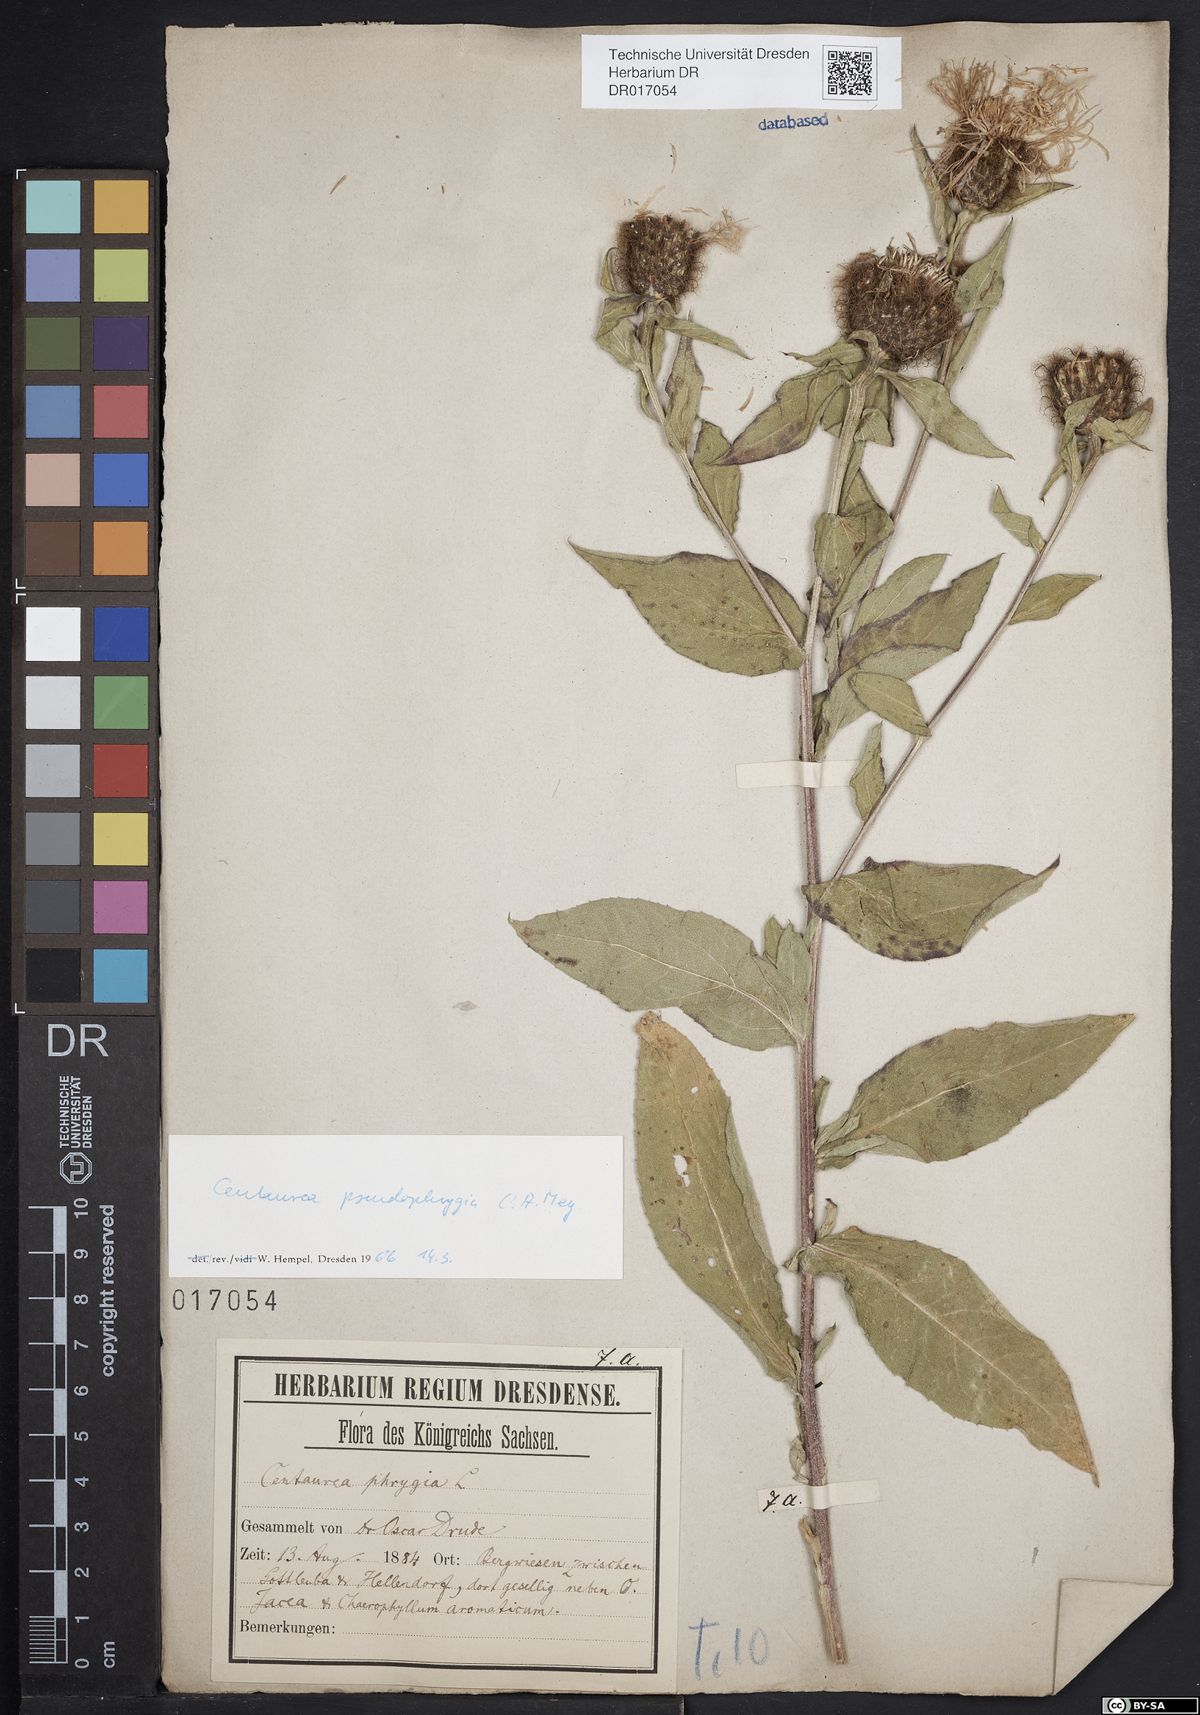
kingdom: Plantae
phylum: Tracheophyta
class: Magnoliopsida
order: Asterales
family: Asteraceae
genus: Centaurea
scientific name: Centaurea pseudophrygia
